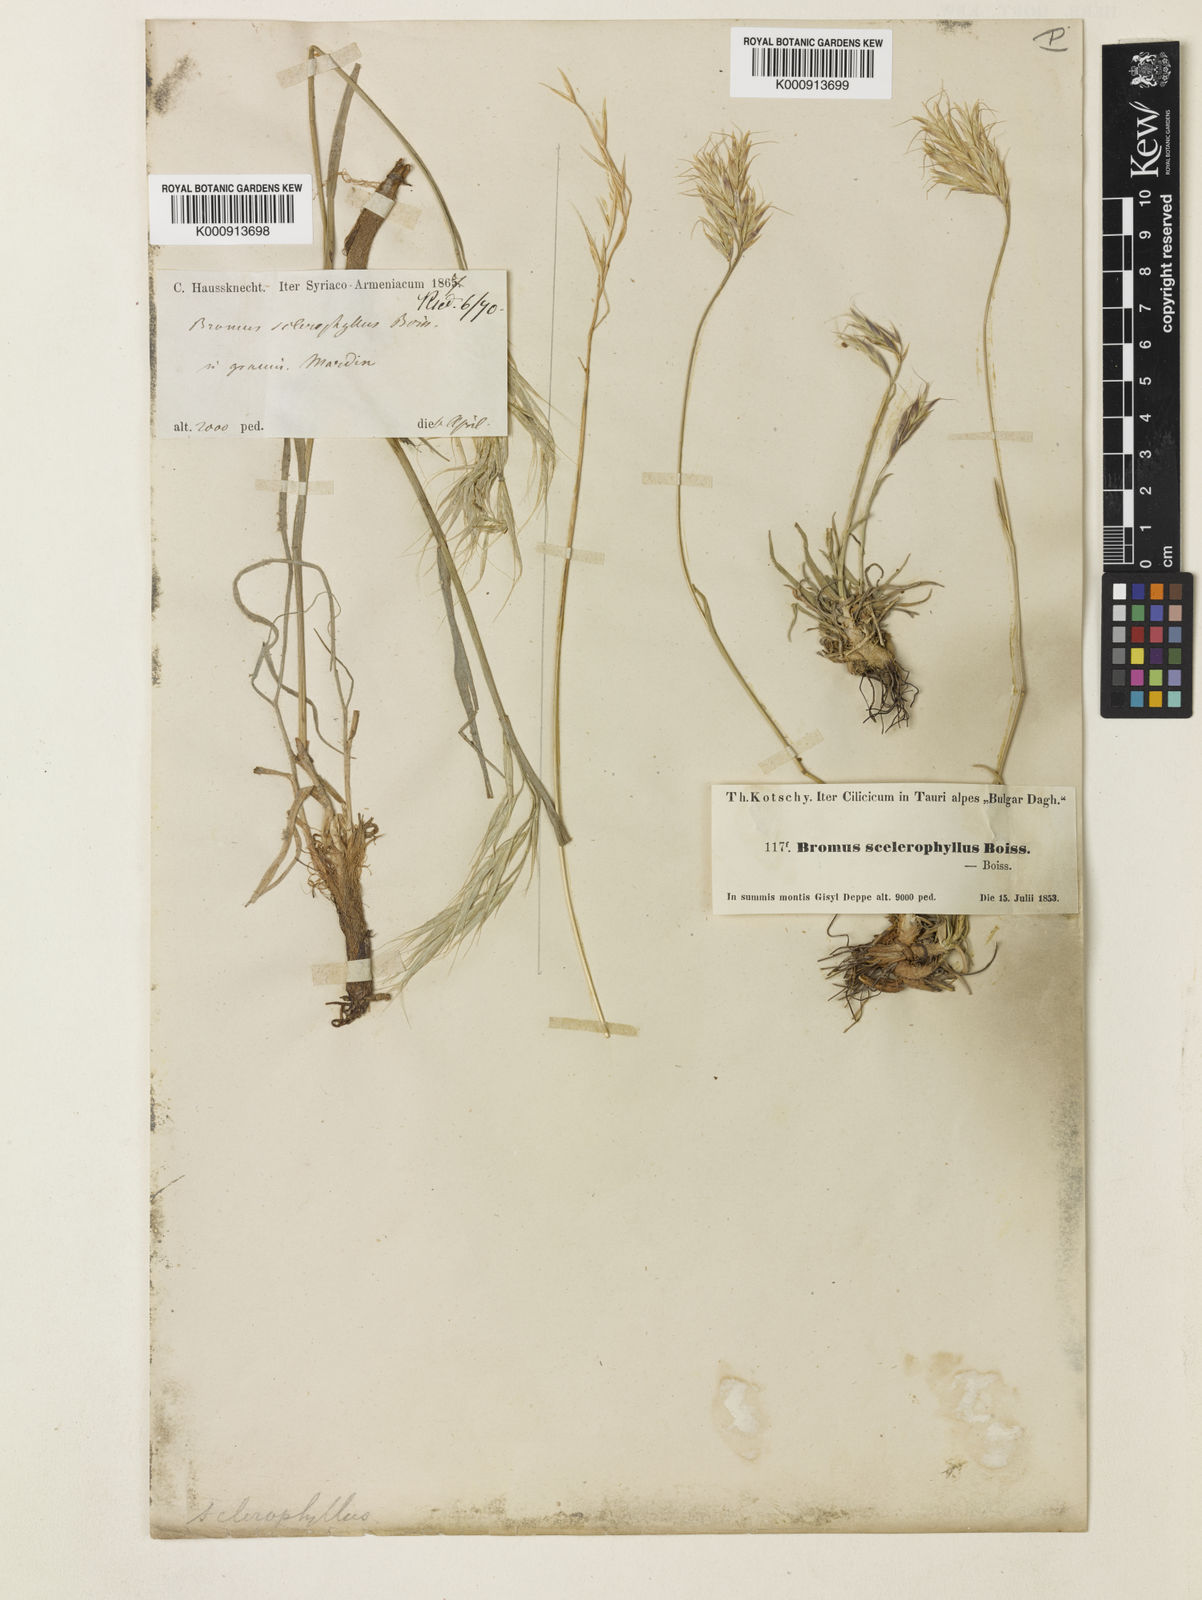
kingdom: Plantae
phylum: Tracheophyta
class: Liliopsida
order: Poales
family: Poaceae
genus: Bromus
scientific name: Bromus sclerophyllus
